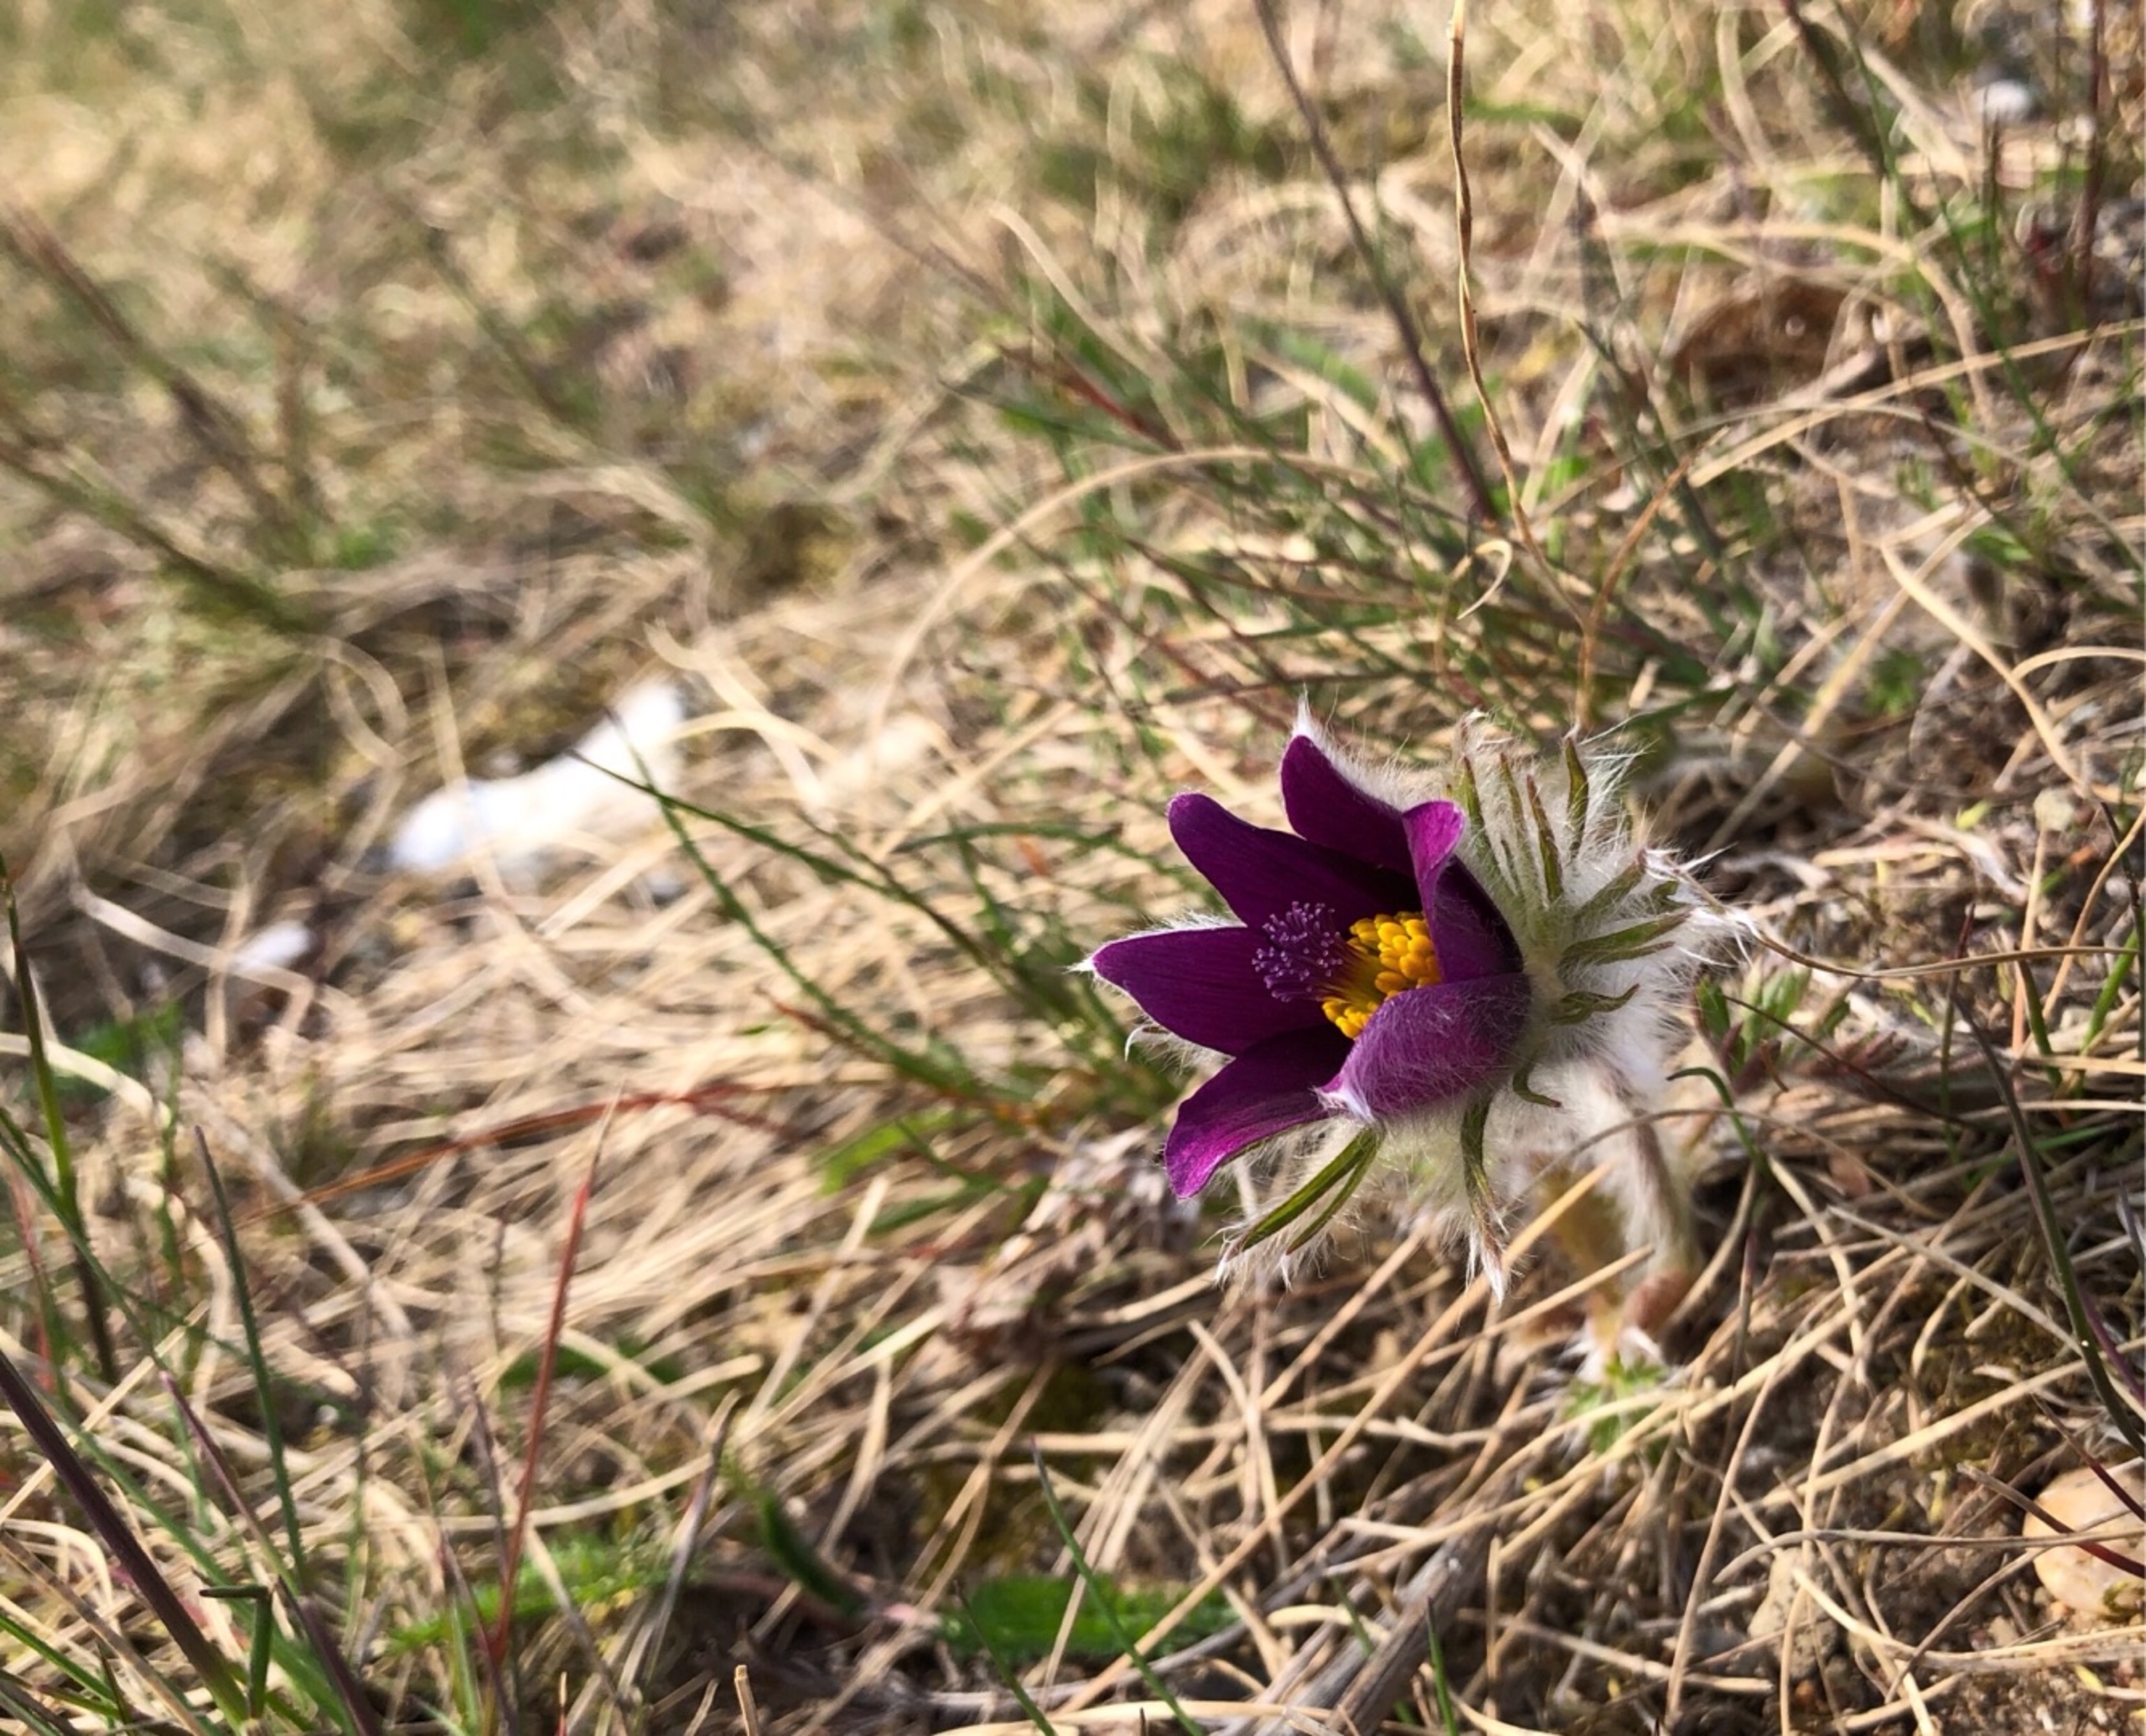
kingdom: Plantae
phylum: Tracheophyta
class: Magnoliopsida
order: Ranunculales
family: Ranunculaceae
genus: Pulsatilla
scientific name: Pulsatilla vulgaris
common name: Opret kobjælde
